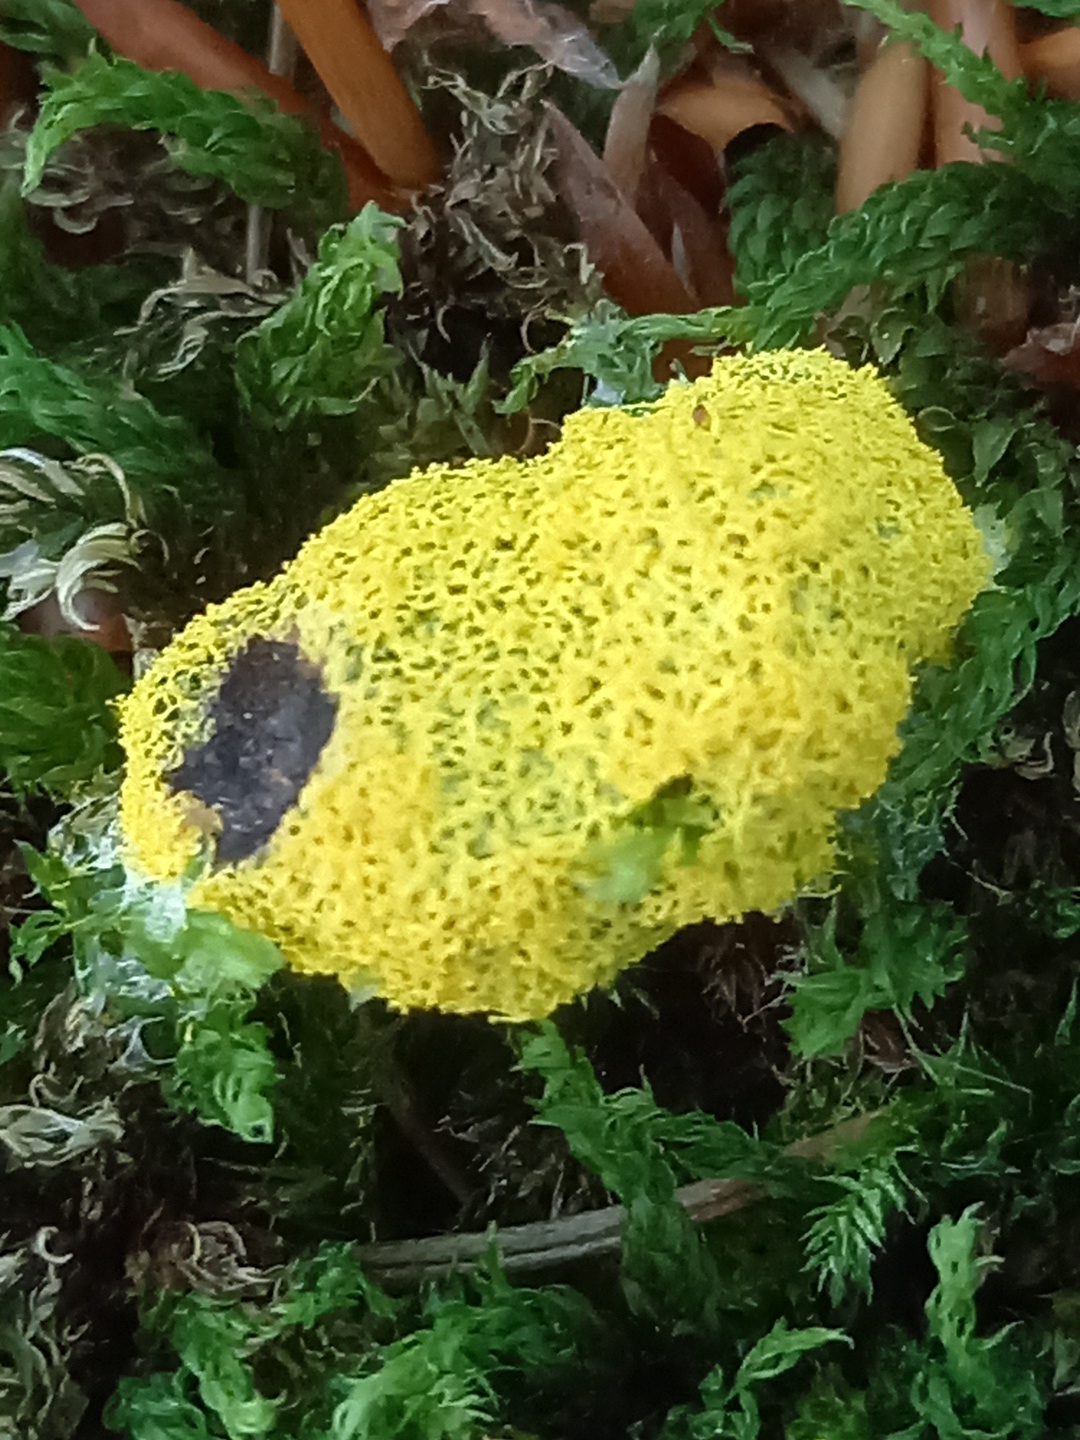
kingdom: Protozoa
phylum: Mycetozoa
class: Myxomycetes
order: Physarales
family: Physaraceae
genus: Fuligo
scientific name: Fuligo septica
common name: gul troldsmør
